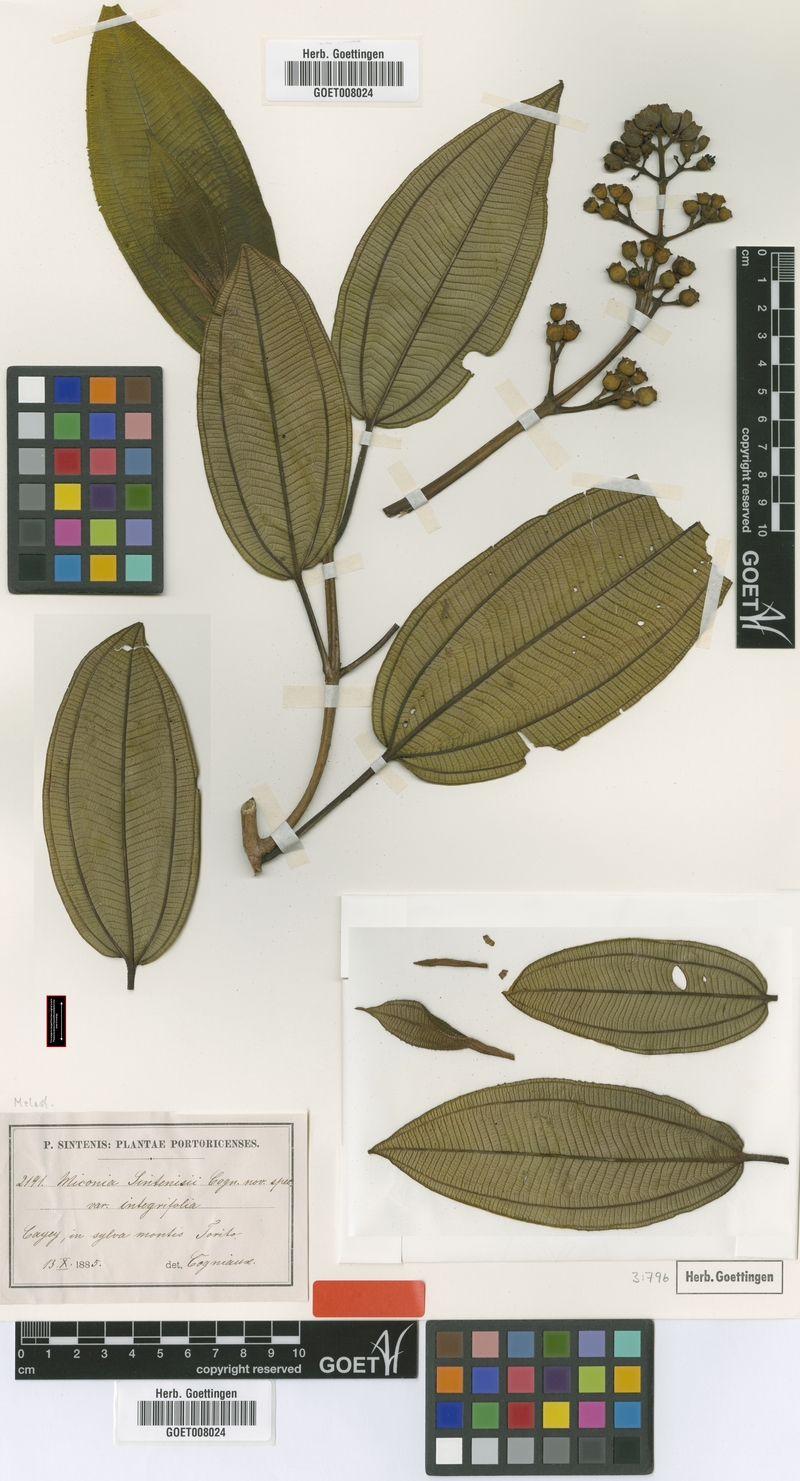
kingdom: Plantae
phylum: Tracheophyta
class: Magnoliopsida
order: Myrtales
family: Melastomataceae
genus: Miconia
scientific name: Miconia sintenisii
